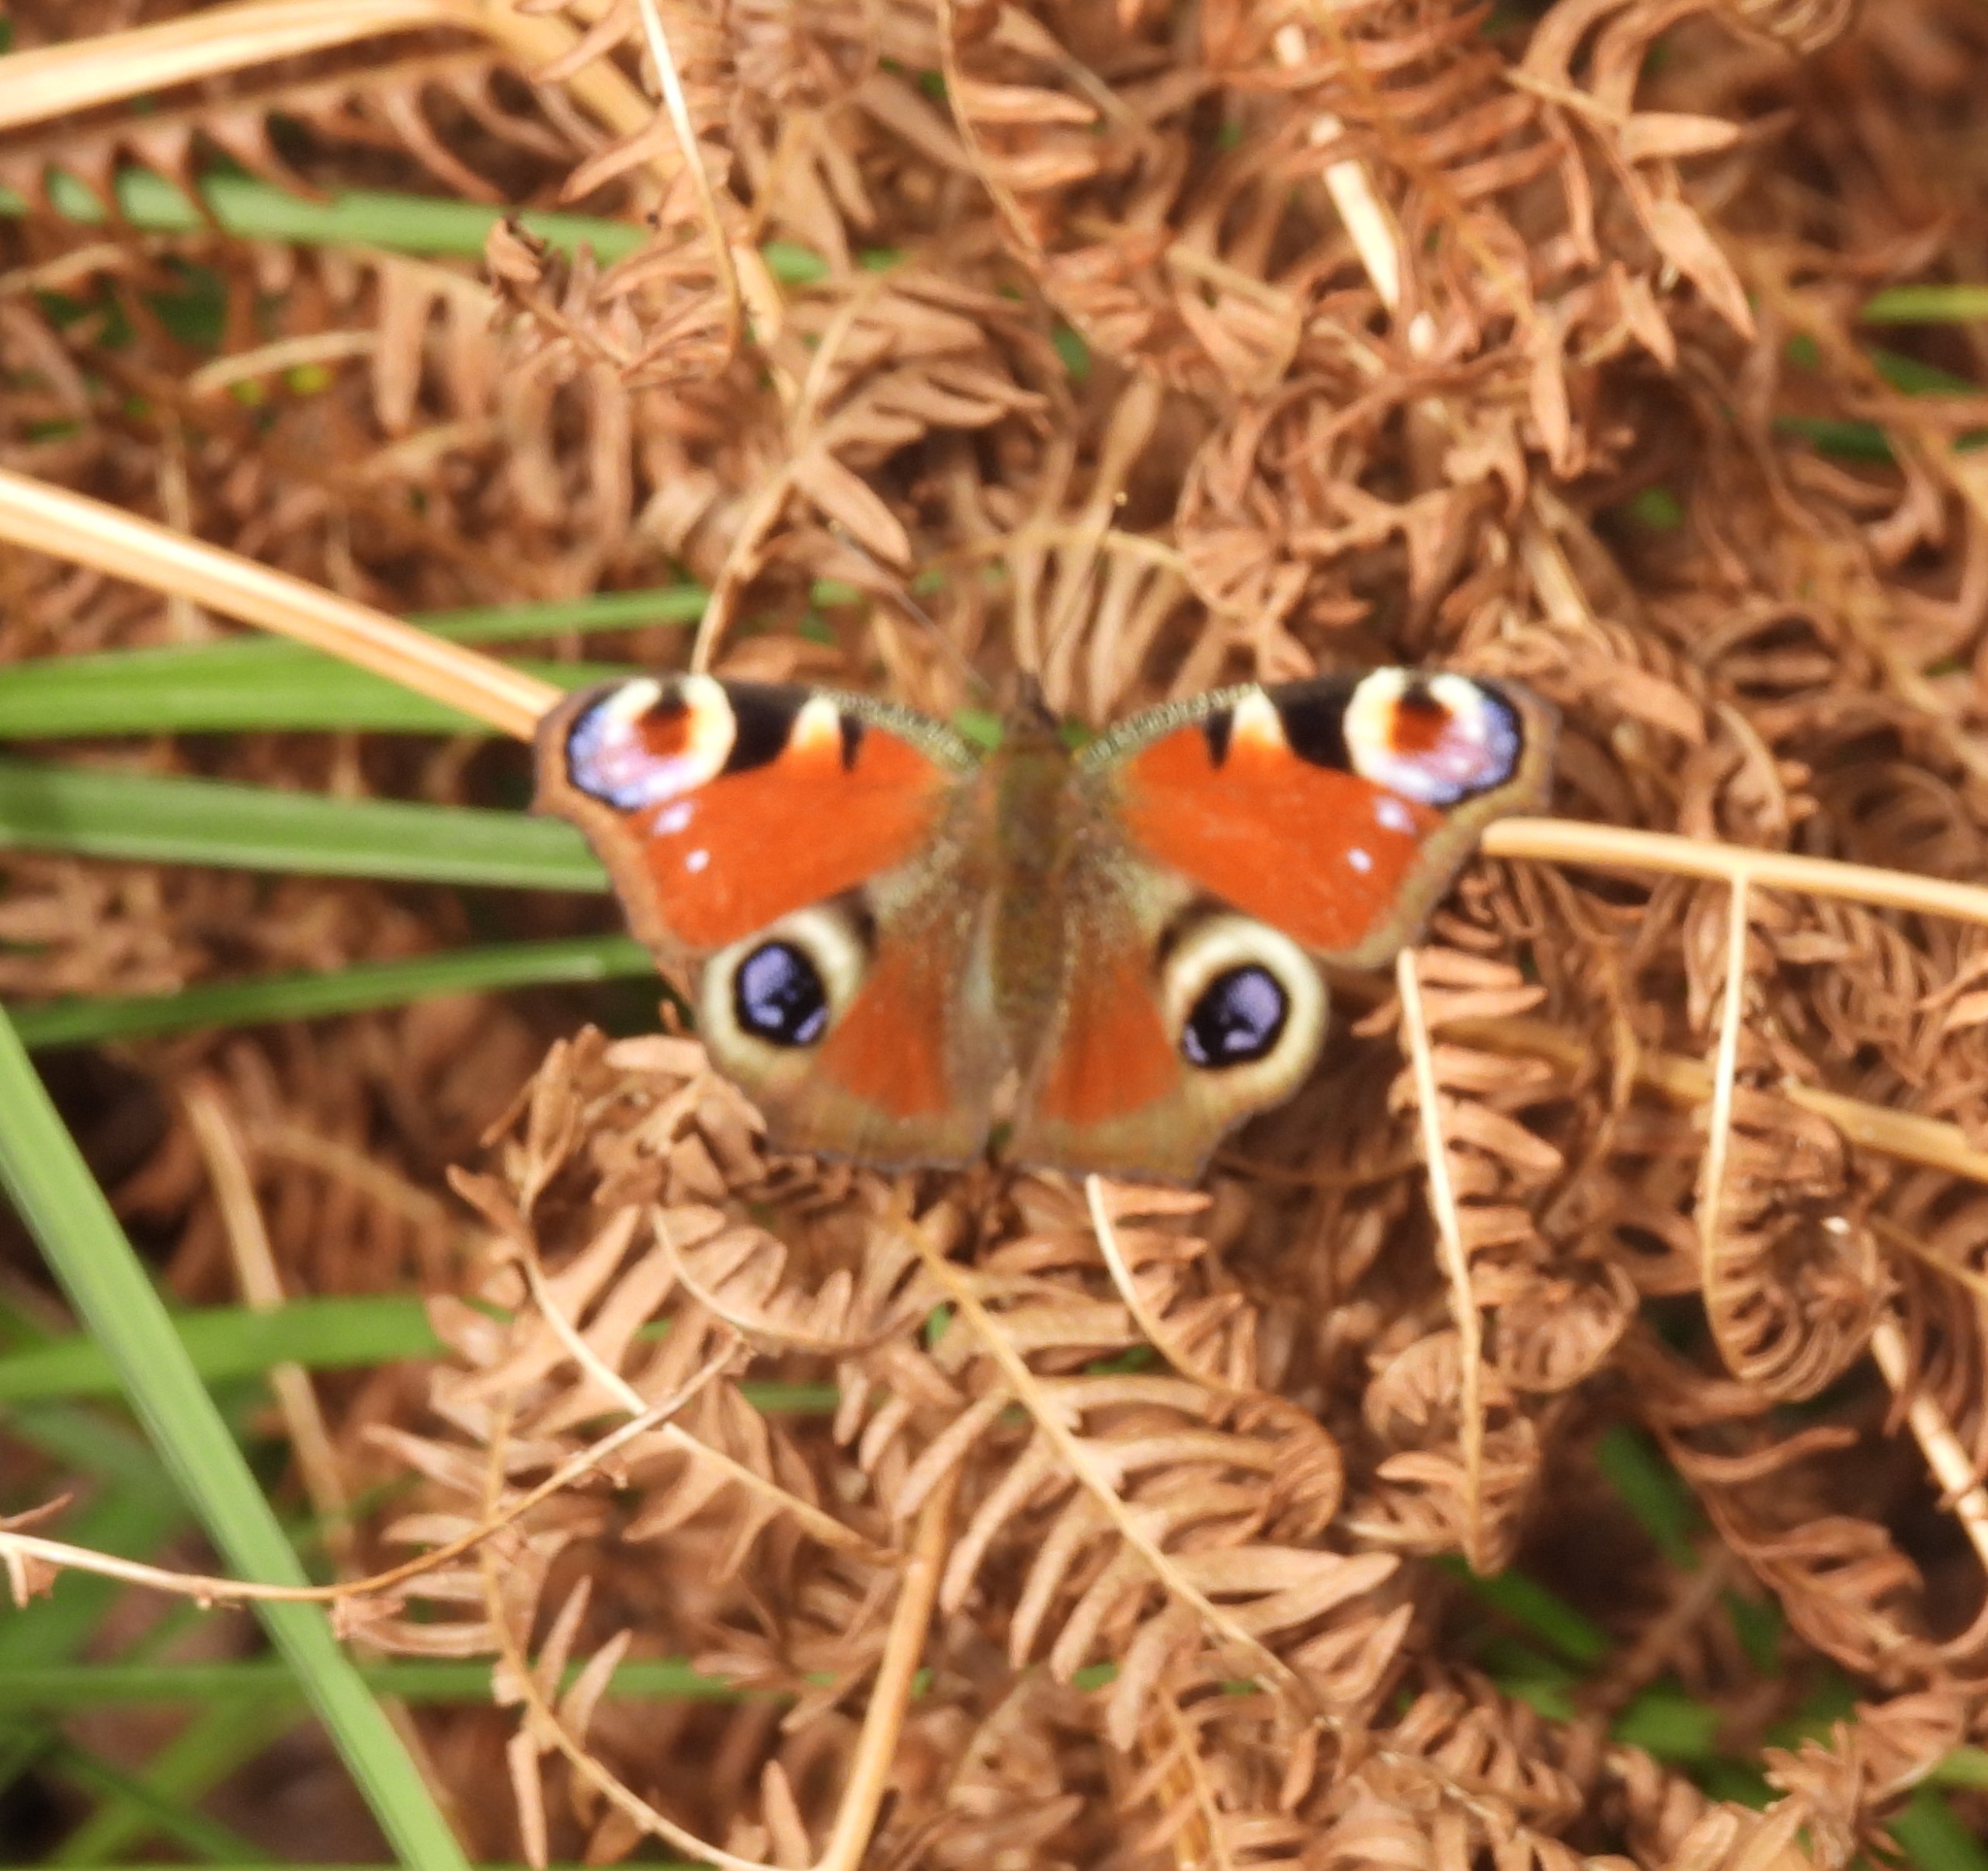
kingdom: Animalia
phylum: Arthropoda
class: Insecta
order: Lepidoptera
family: Nymphalidae
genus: Aglais
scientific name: Aglais io
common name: Dagpåfugleøje
